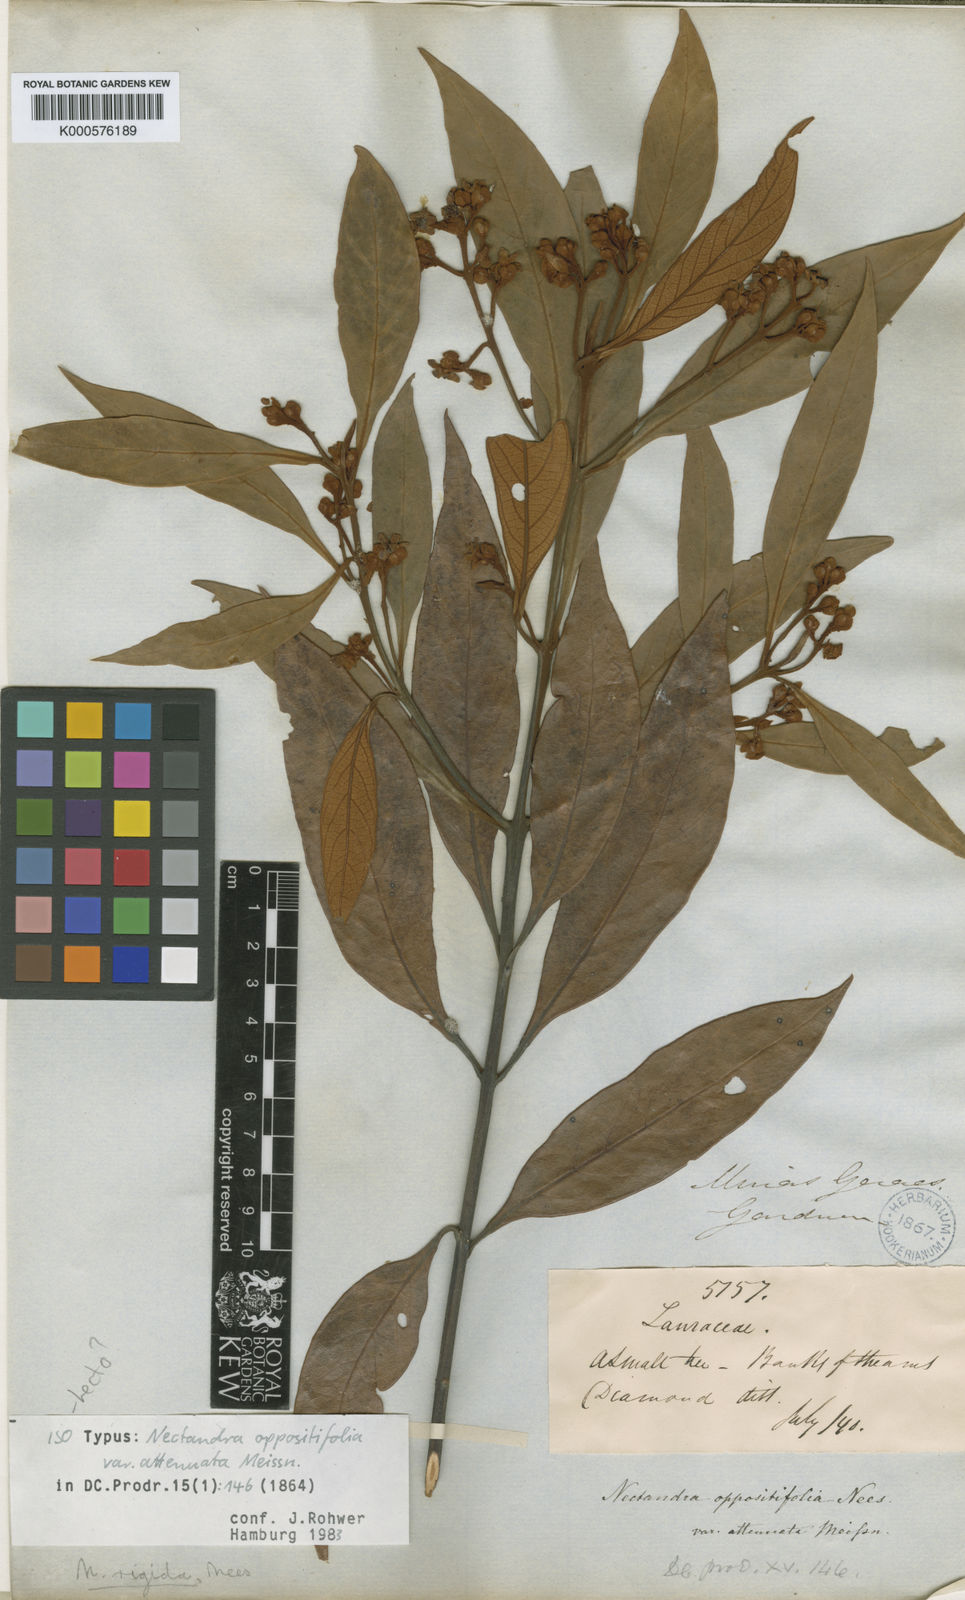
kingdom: Plantae
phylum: Tracheophyta
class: Magnoliopsida
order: Laurales
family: Lauraceae
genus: Nectandra
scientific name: Nectandra oppositifolia
